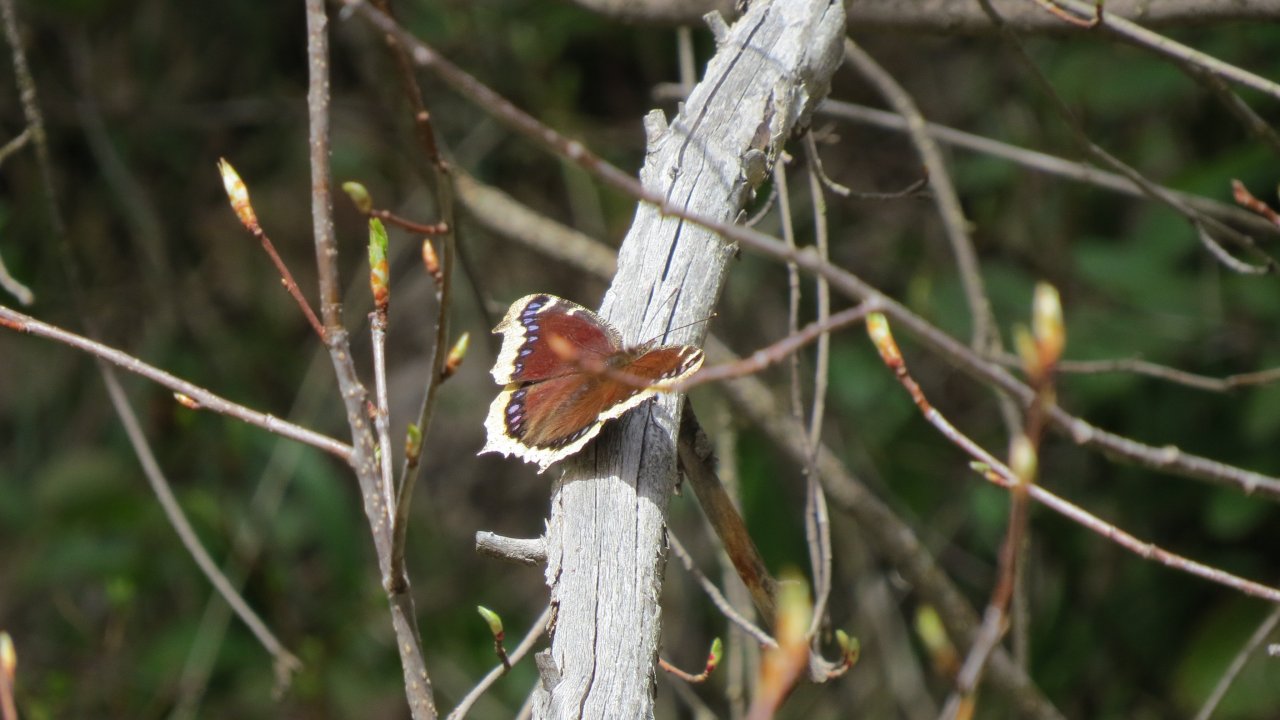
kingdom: Animalia
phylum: Arthropoda
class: Insecta
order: Lepidoptera
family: Nymphalidae
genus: Nymphalis
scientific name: Nymphalis antiopa
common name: Mourning Cloak
